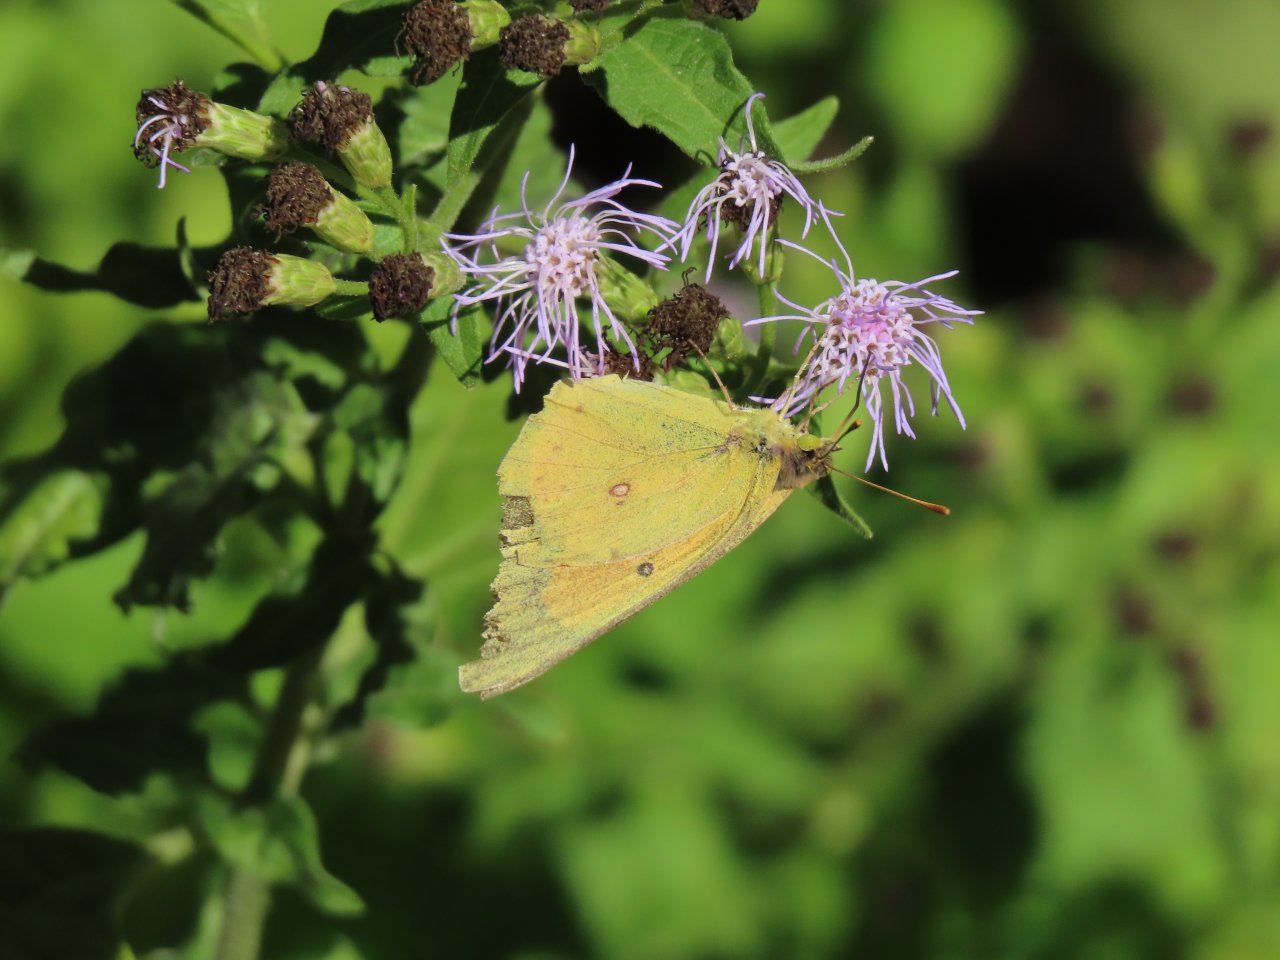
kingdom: Animalia
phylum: Arthropoda
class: Insecta
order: Lepidoptera
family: Pieridae
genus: Colias
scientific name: Colias eurytheme
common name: Orange Sulphur
